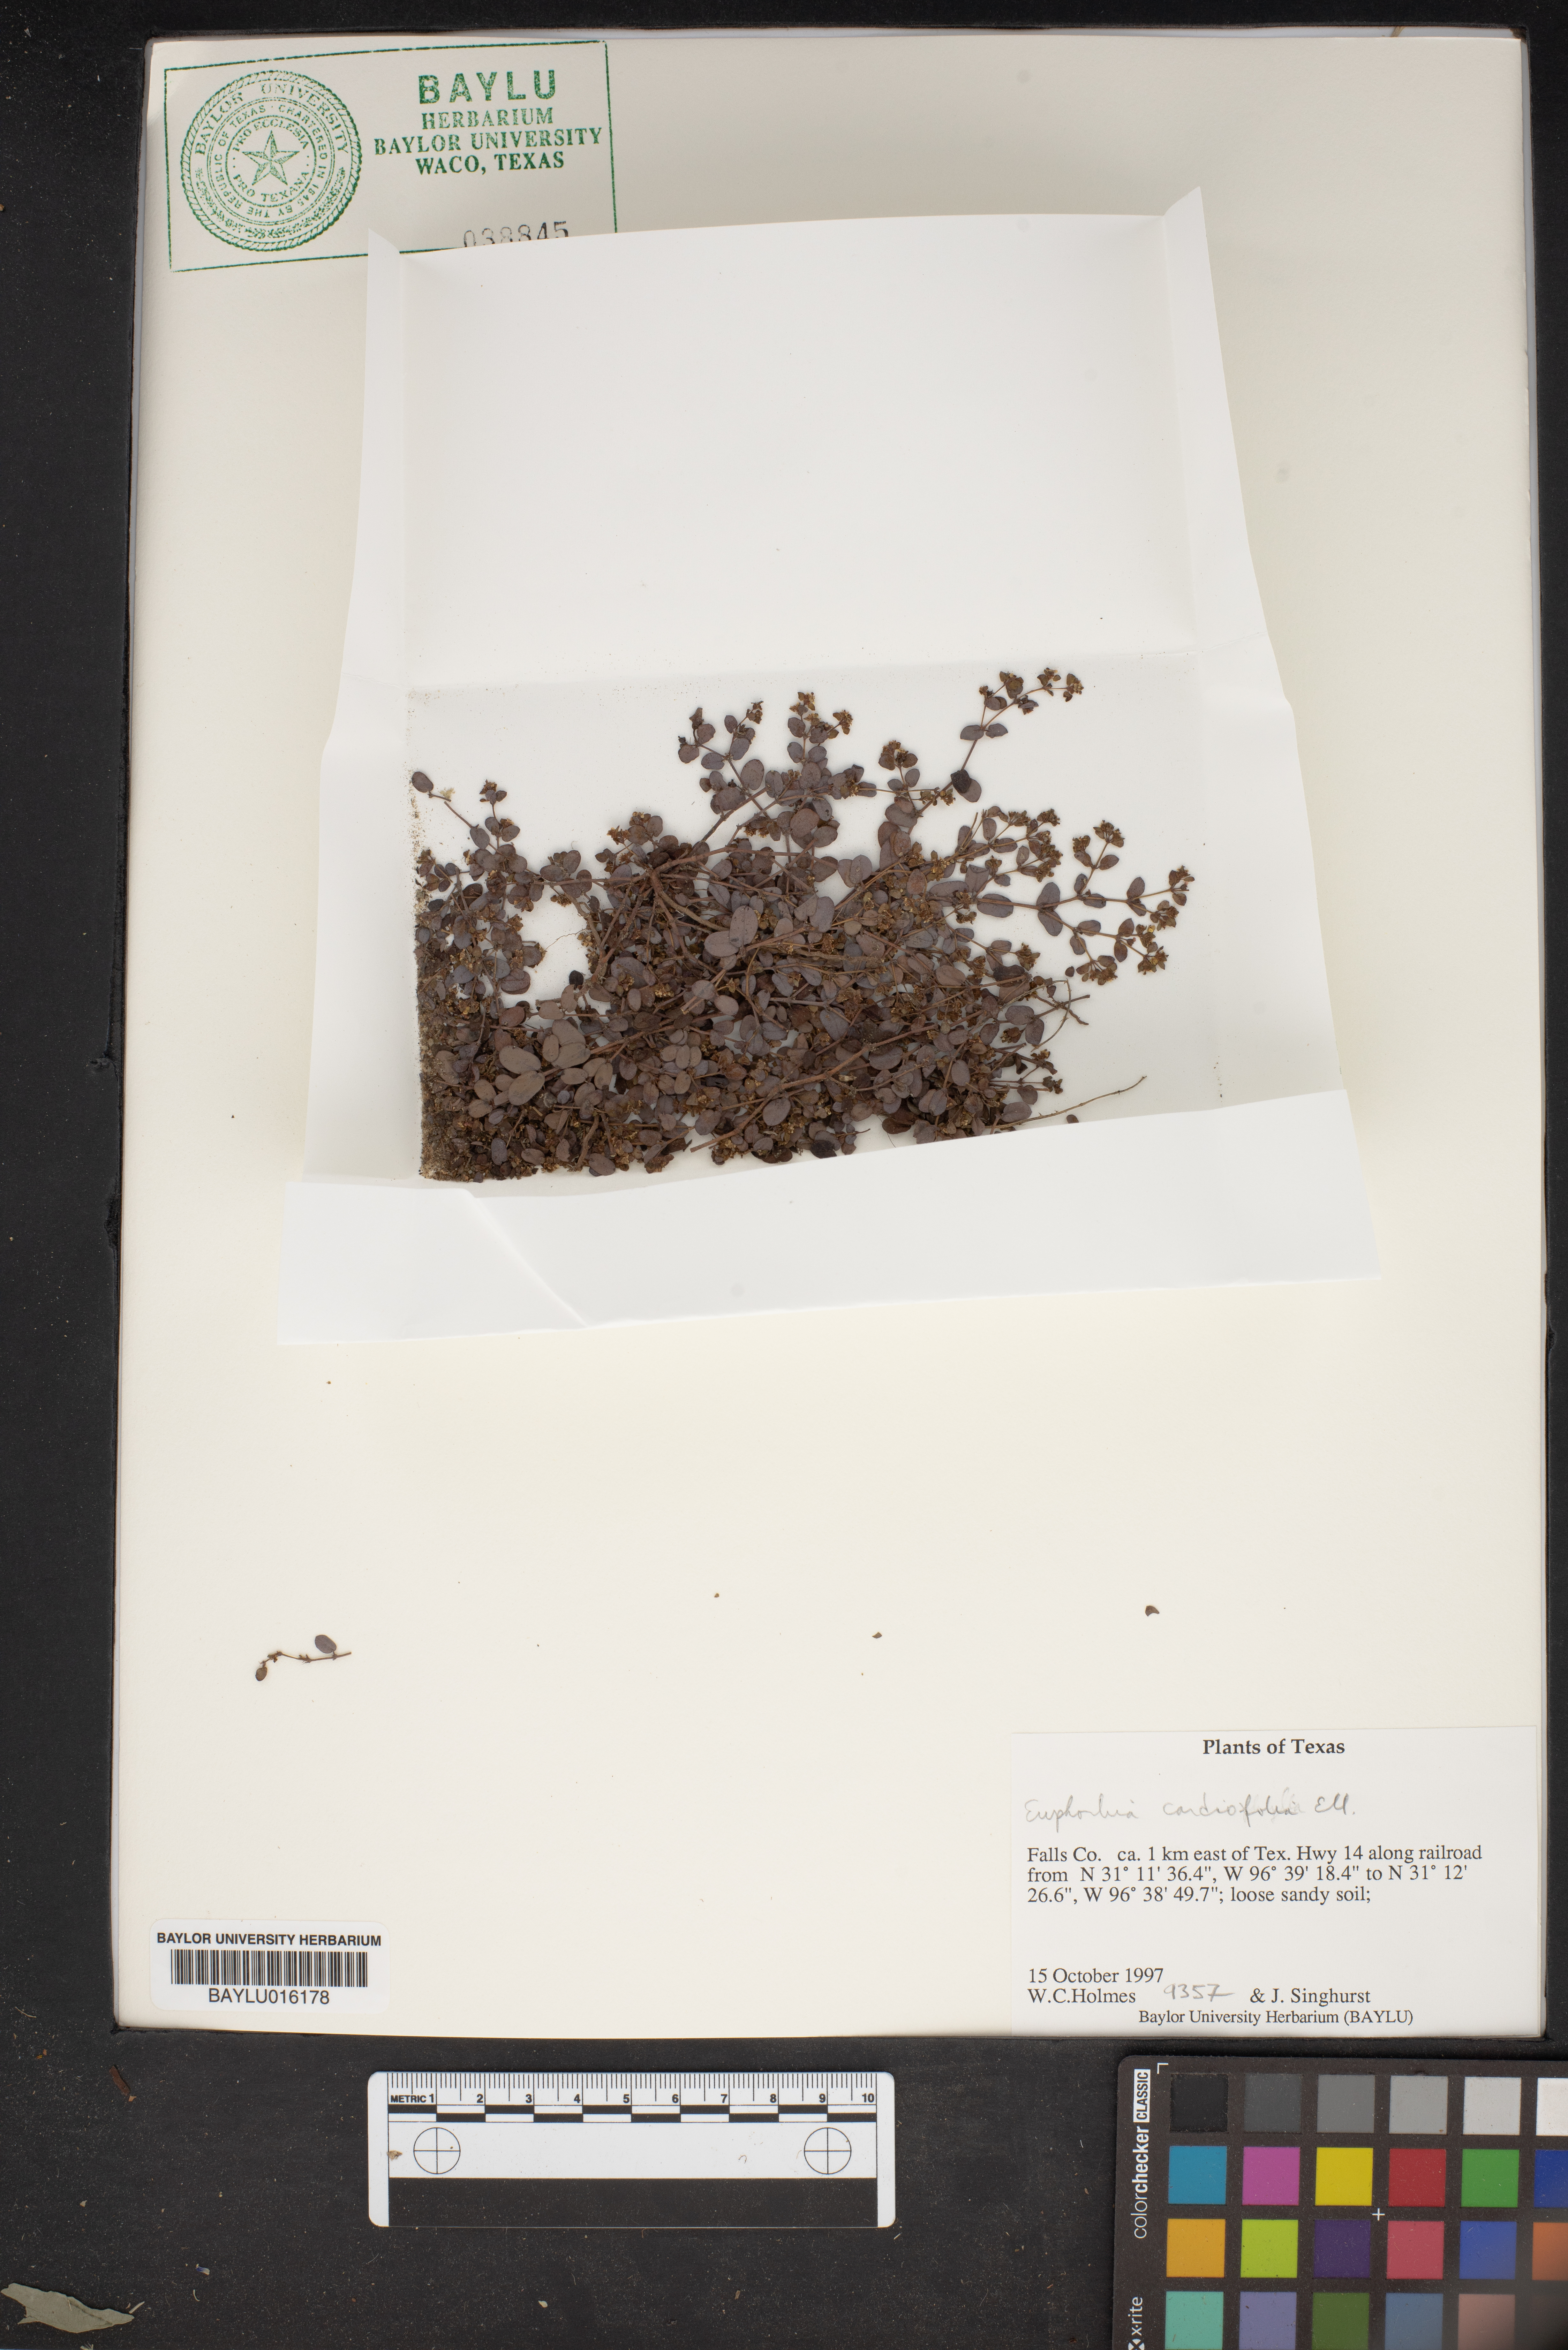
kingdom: Plantae
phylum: Tracheophyta
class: Magnoliopsida
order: Malpighiales
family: Euphorbiaceae
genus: Euphorbia
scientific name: Euphorbia cordifolia
